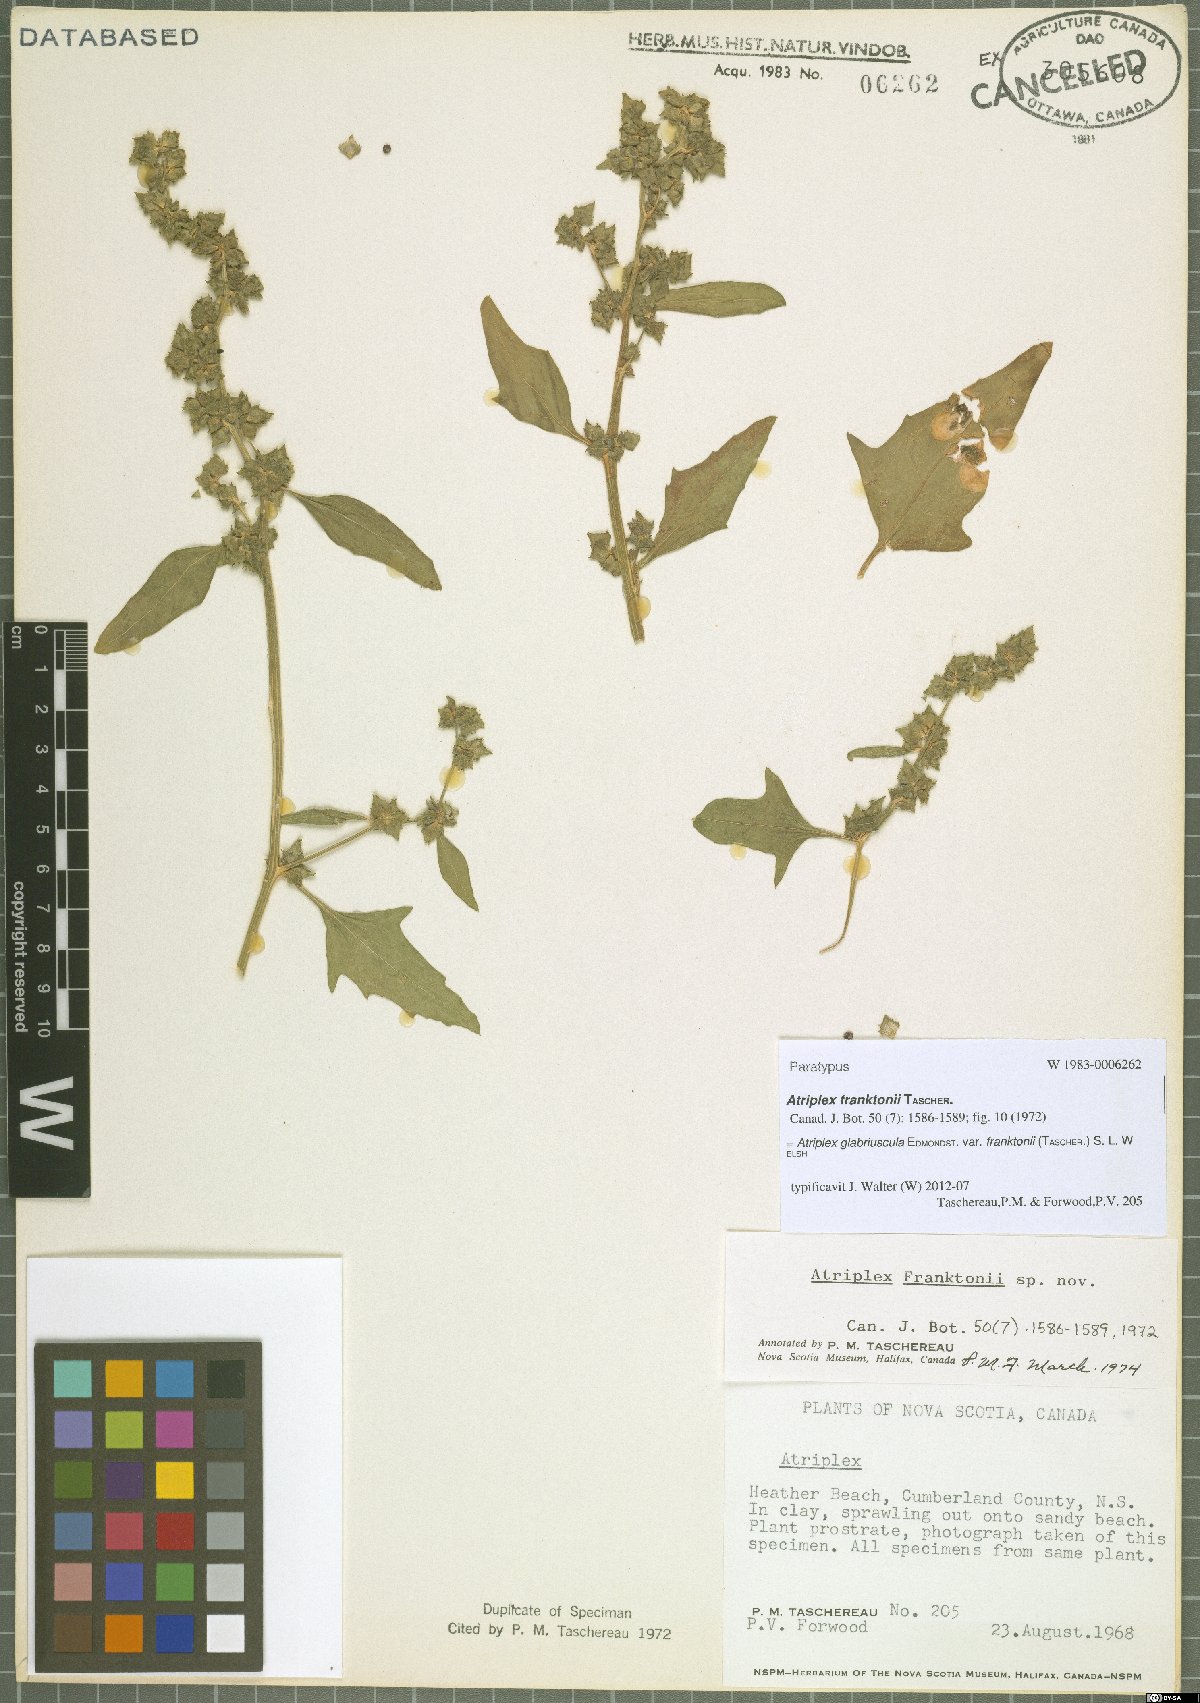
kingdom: Plantae
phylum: Tracheophyta
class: Magnoliopsida
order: Caryophyllales
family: Amaranthaceae
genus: Atriplex
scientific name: Atriplex glabriuscula
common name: Babington's orache
